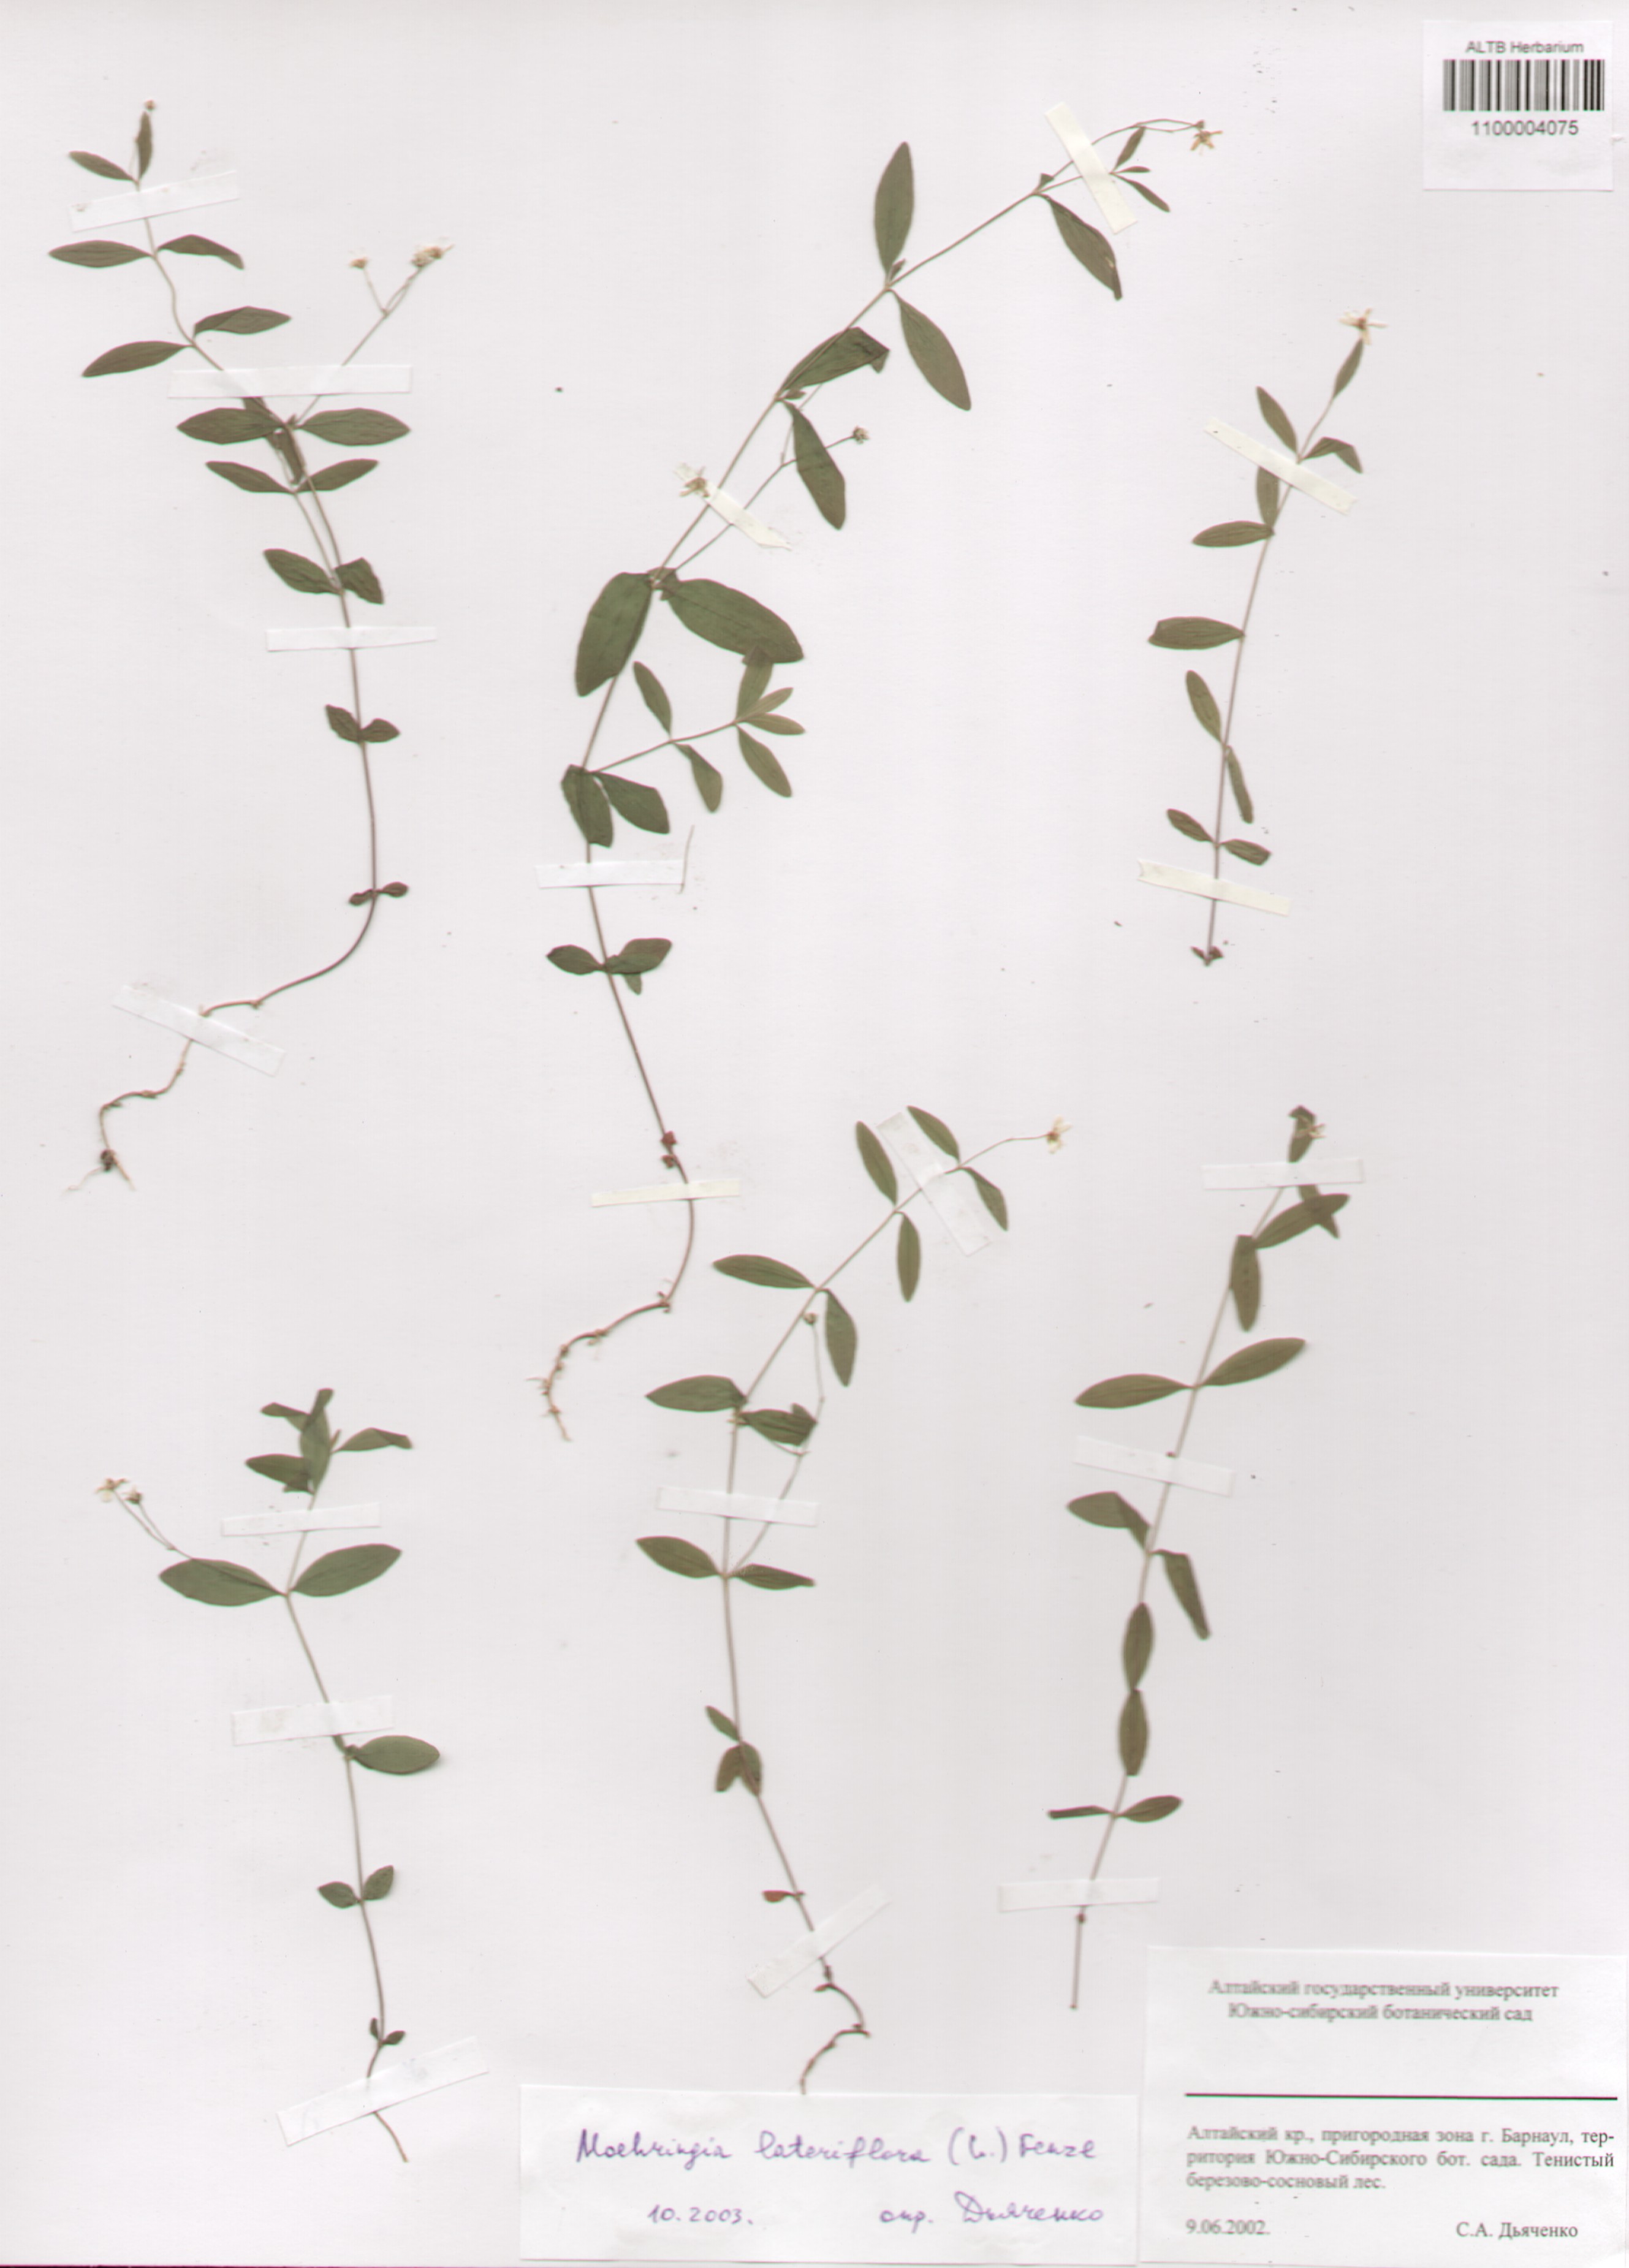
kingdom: Plantae
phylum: Tracheophyta
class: Magnoliopsida
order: Caryophyllales
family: Caryophyllaceae
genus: Moehringia
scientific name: Moehringia lateriflora
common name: Blunt-leaved sandwort
